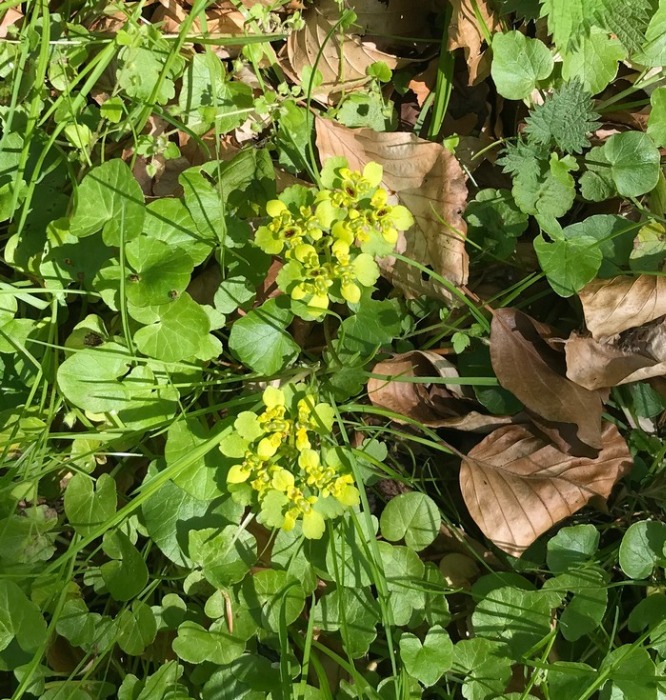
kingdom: Plantae
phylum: Tracheophyta
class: Magnoliopsida
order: Saxifragales
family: Saxifragaceae
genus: Chrysosplenium
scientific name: Chrysosplenium alternifolium
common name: Almindelig milturt
